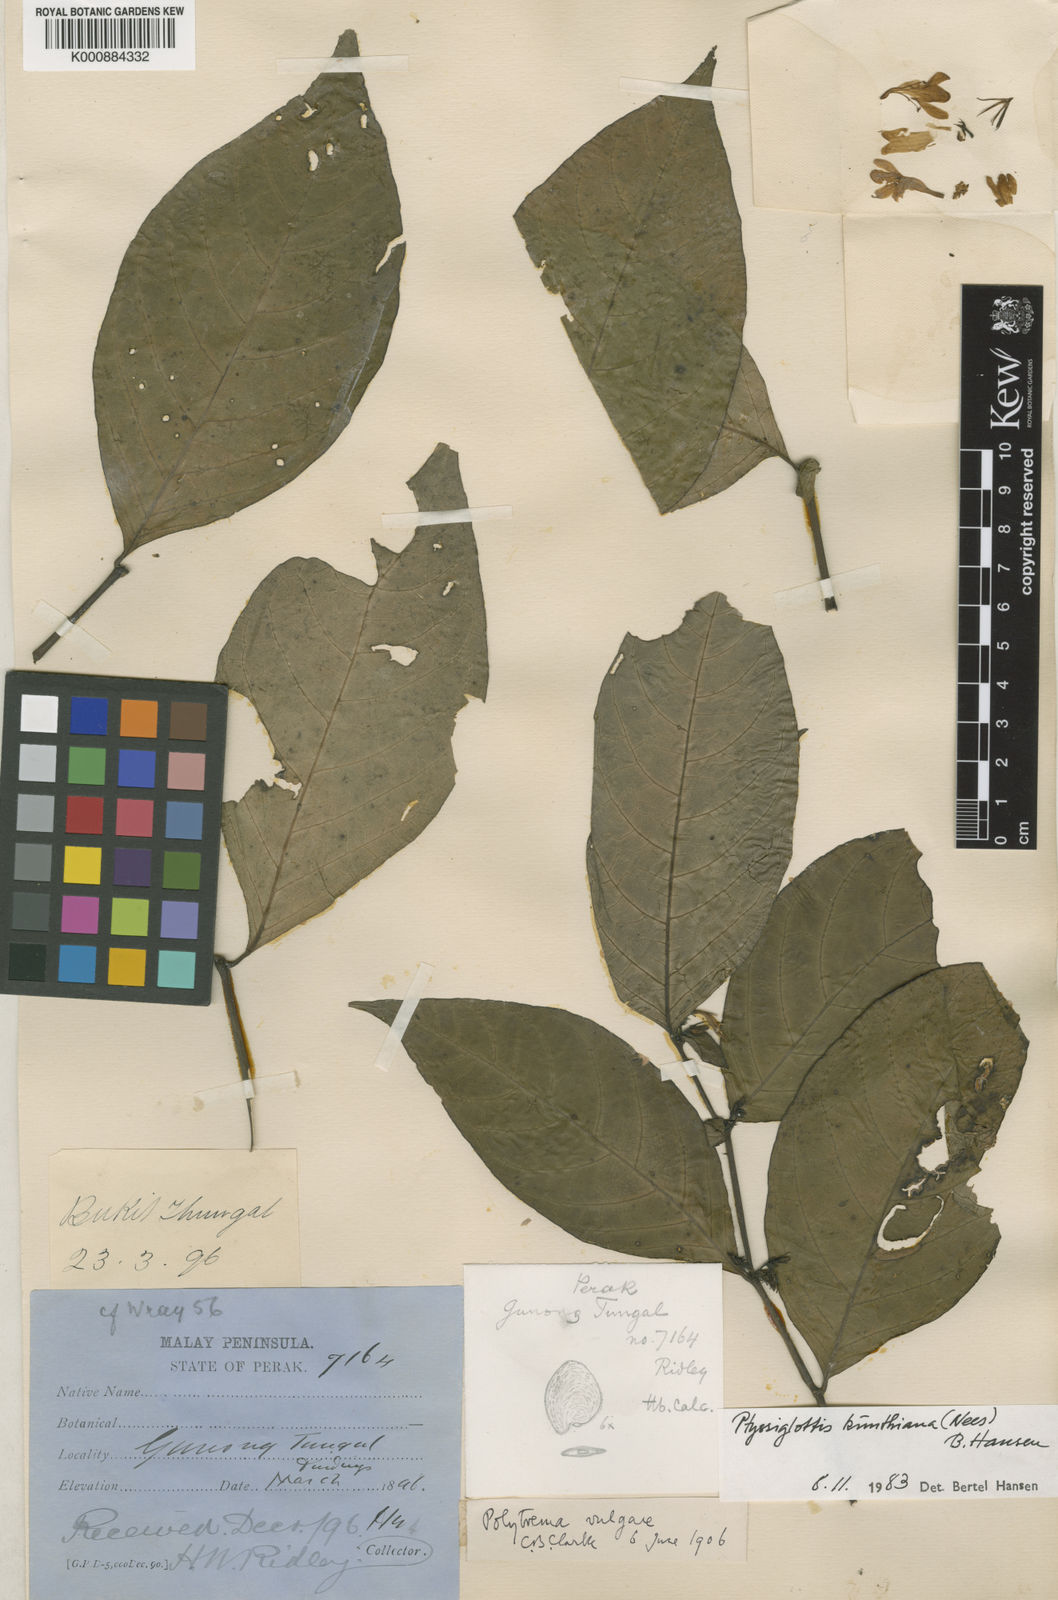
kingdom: Plantae
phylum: Tracheophyta
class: Magnoliopsida
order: Lamiales
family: Acanthaceae
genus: Ptyssiglottis
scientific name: Ptyssiglottis kunthiana
